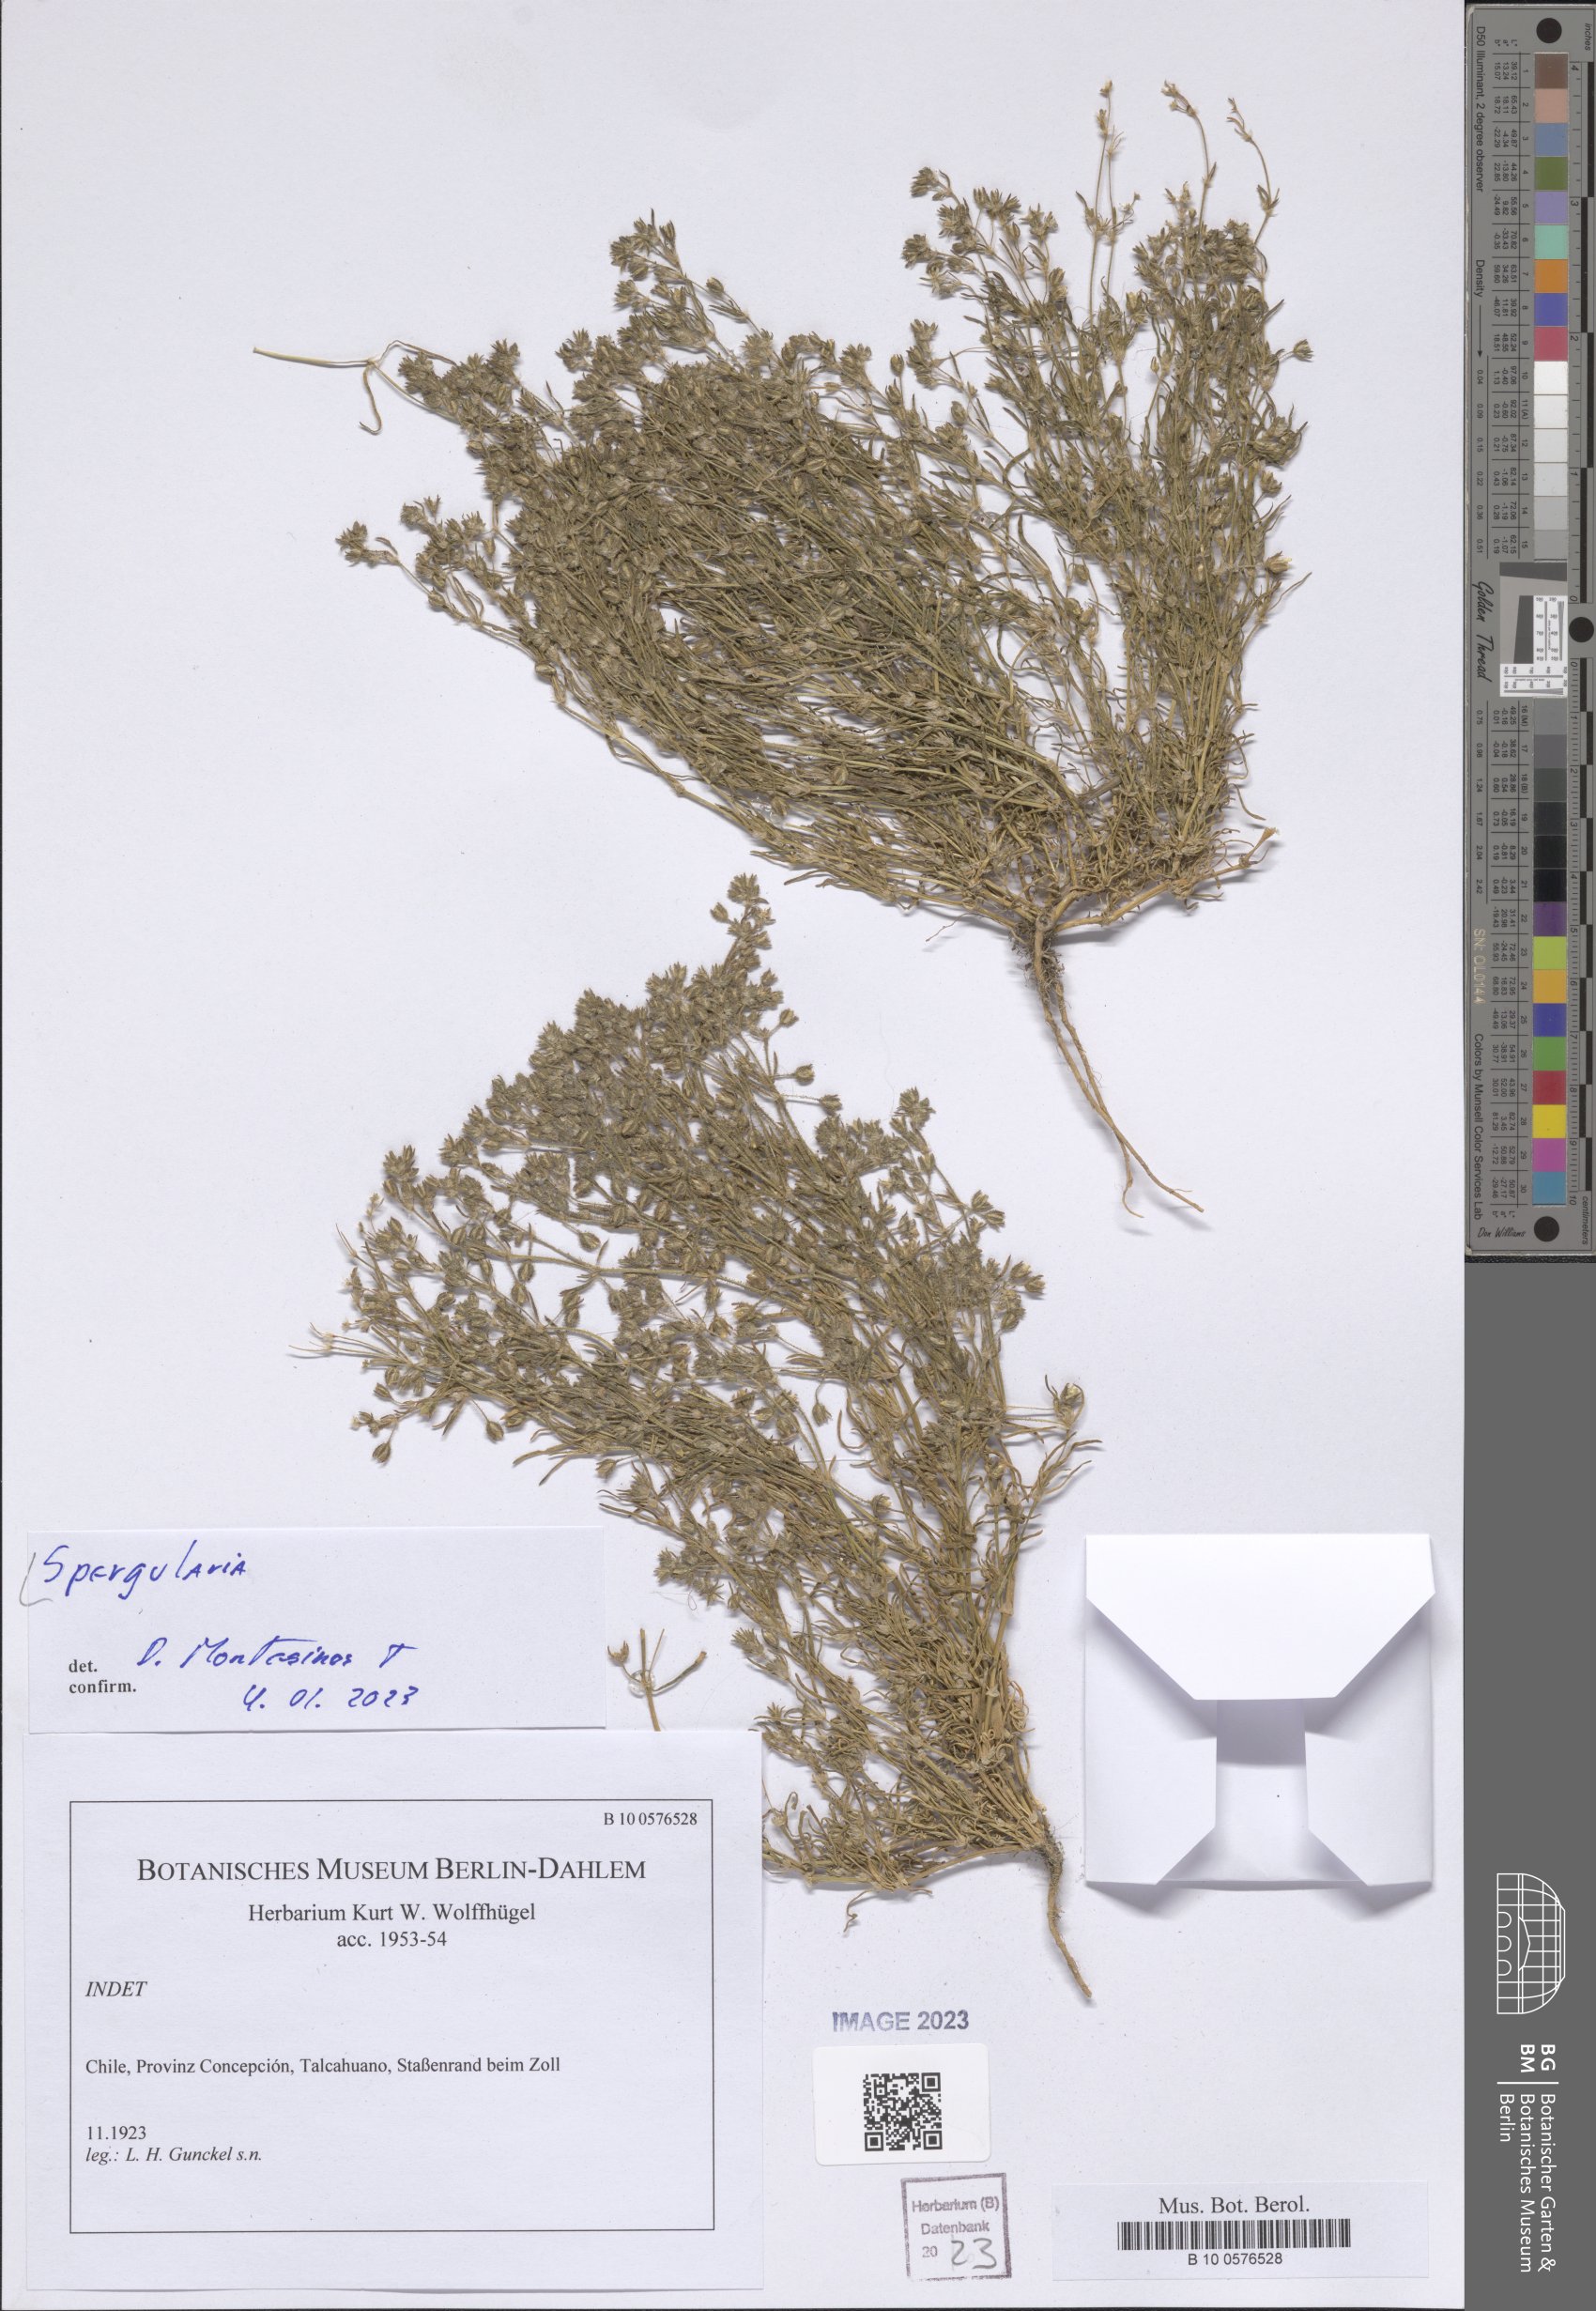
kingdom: Plantae
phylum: Tracheophyta
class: Magnoliopsida
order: Caryophyllales
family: Caryophyllaceae
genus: Spergularia
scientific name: Spergularia
